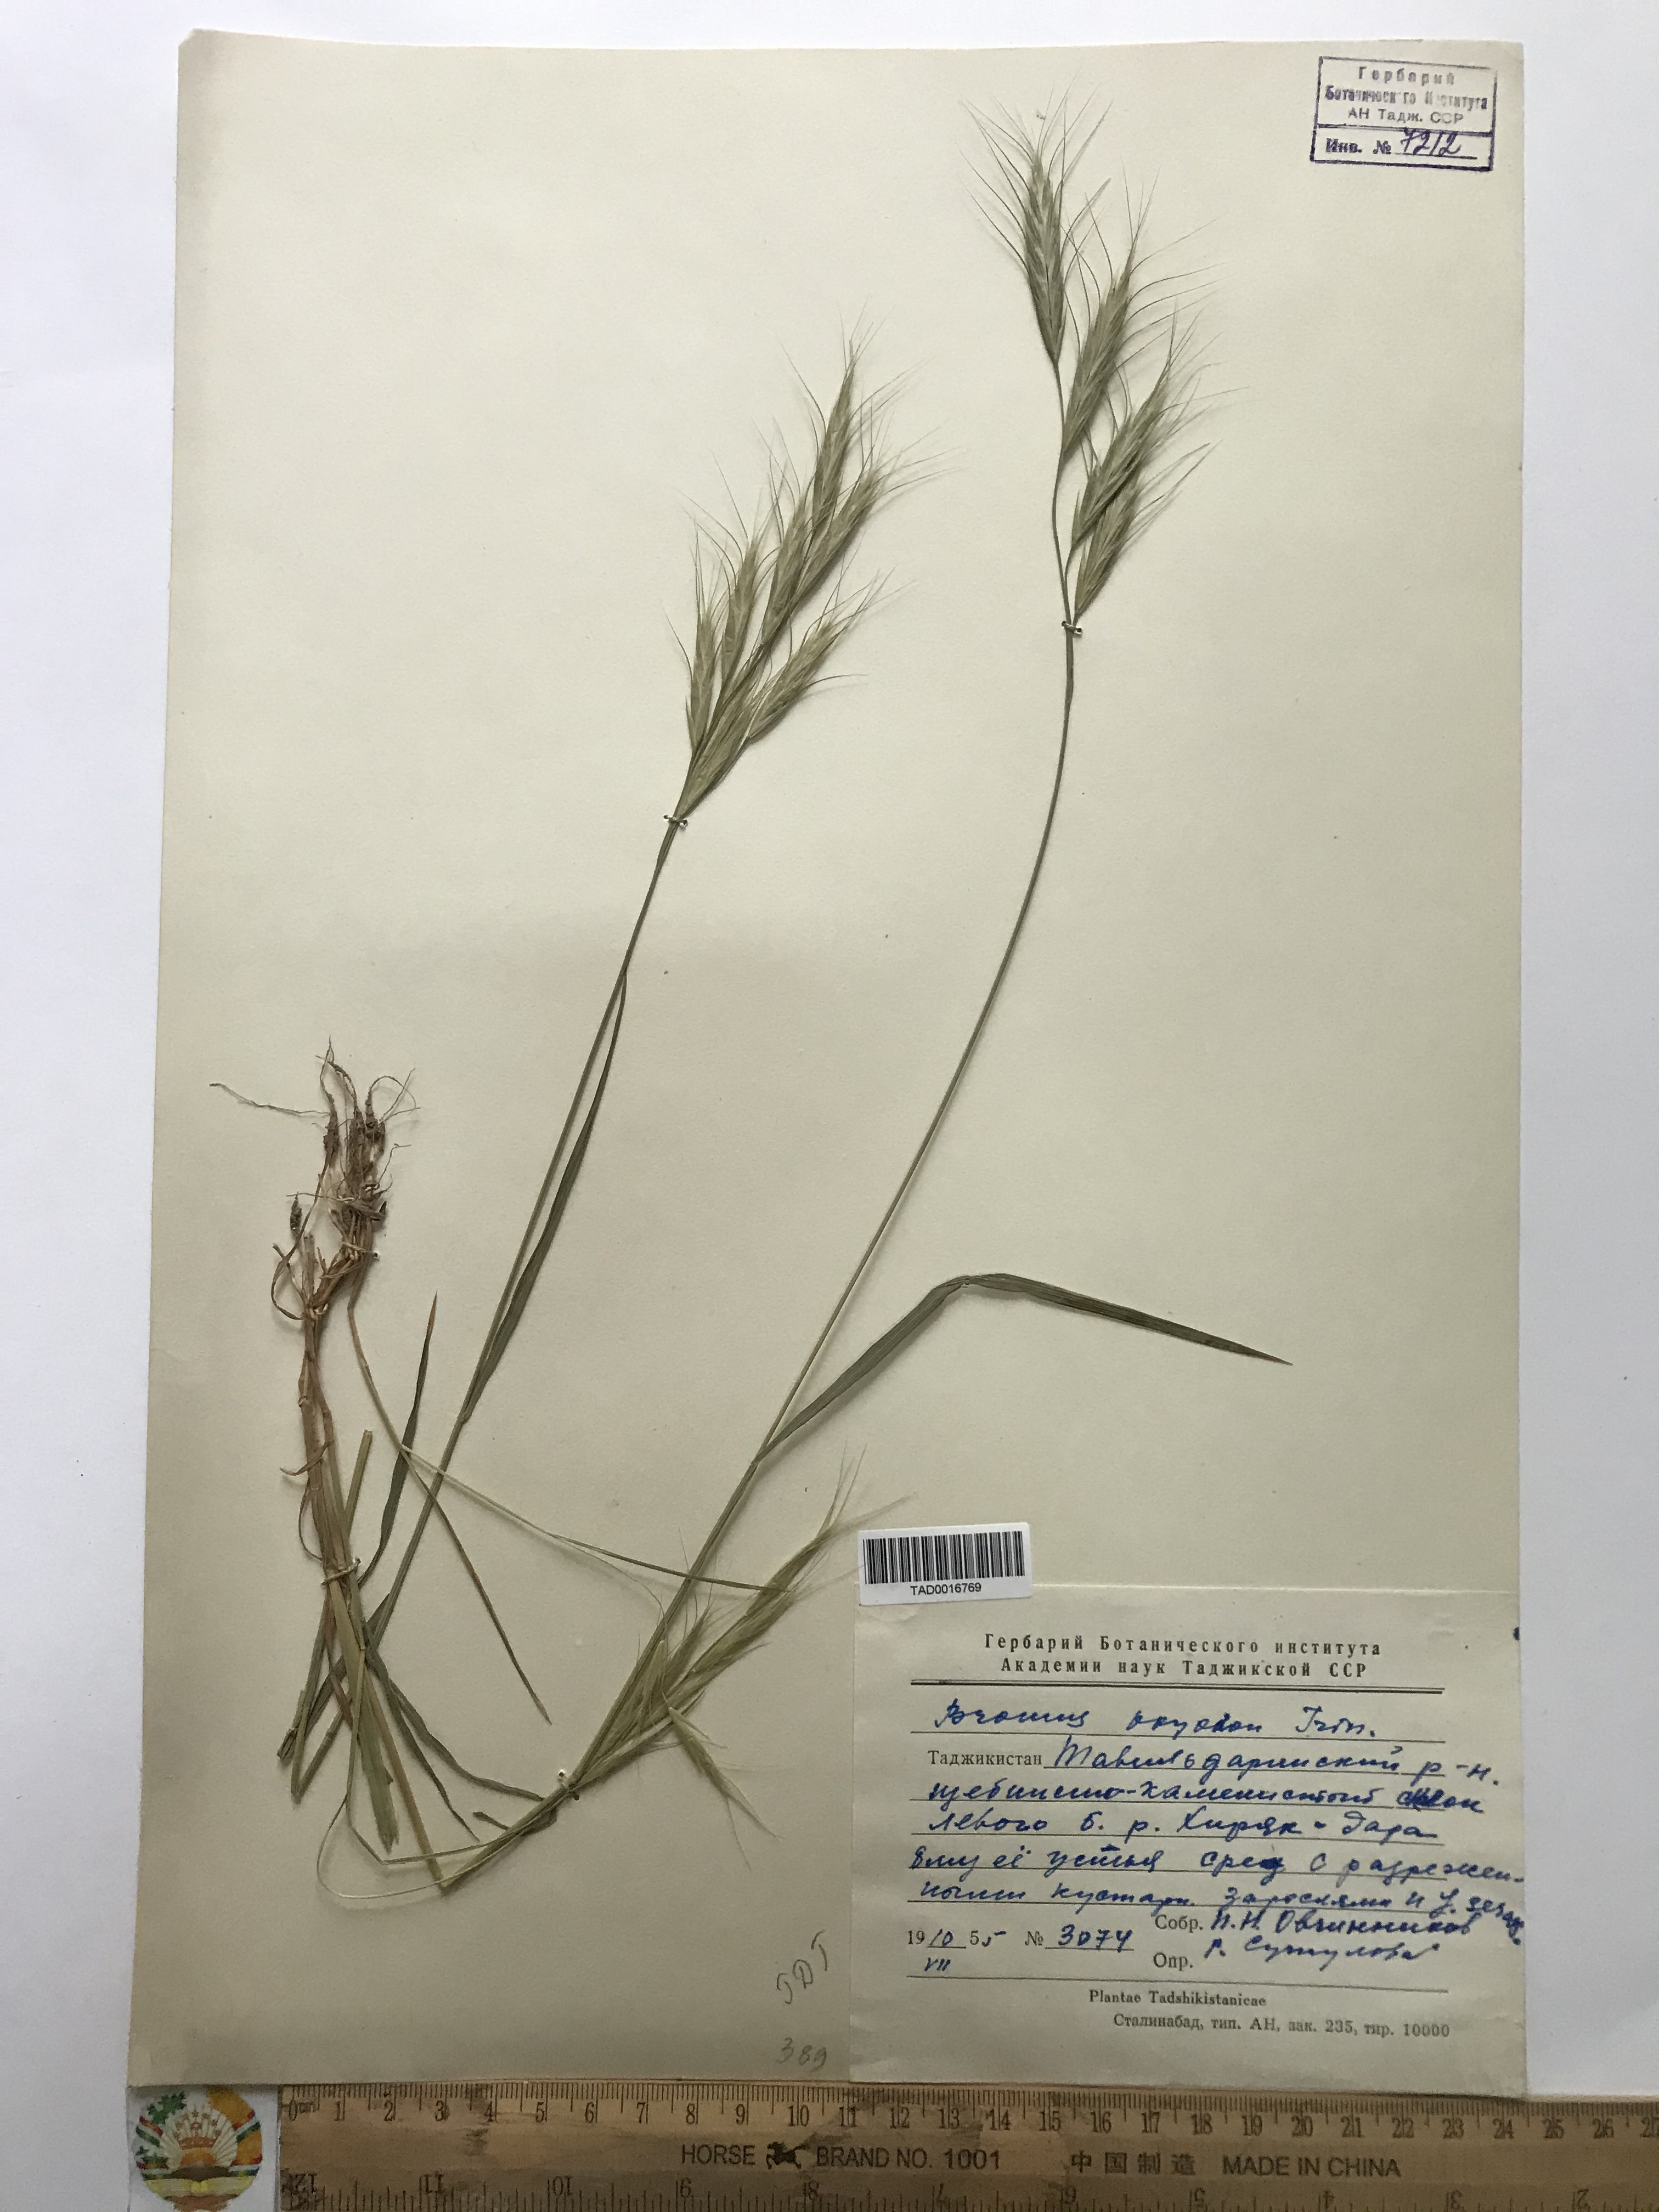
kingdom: Plantae
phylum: Tracheophyta
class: Liliopsida
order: Poales
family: Poaceae
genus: Bromus
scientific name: Bromus oxyodon
